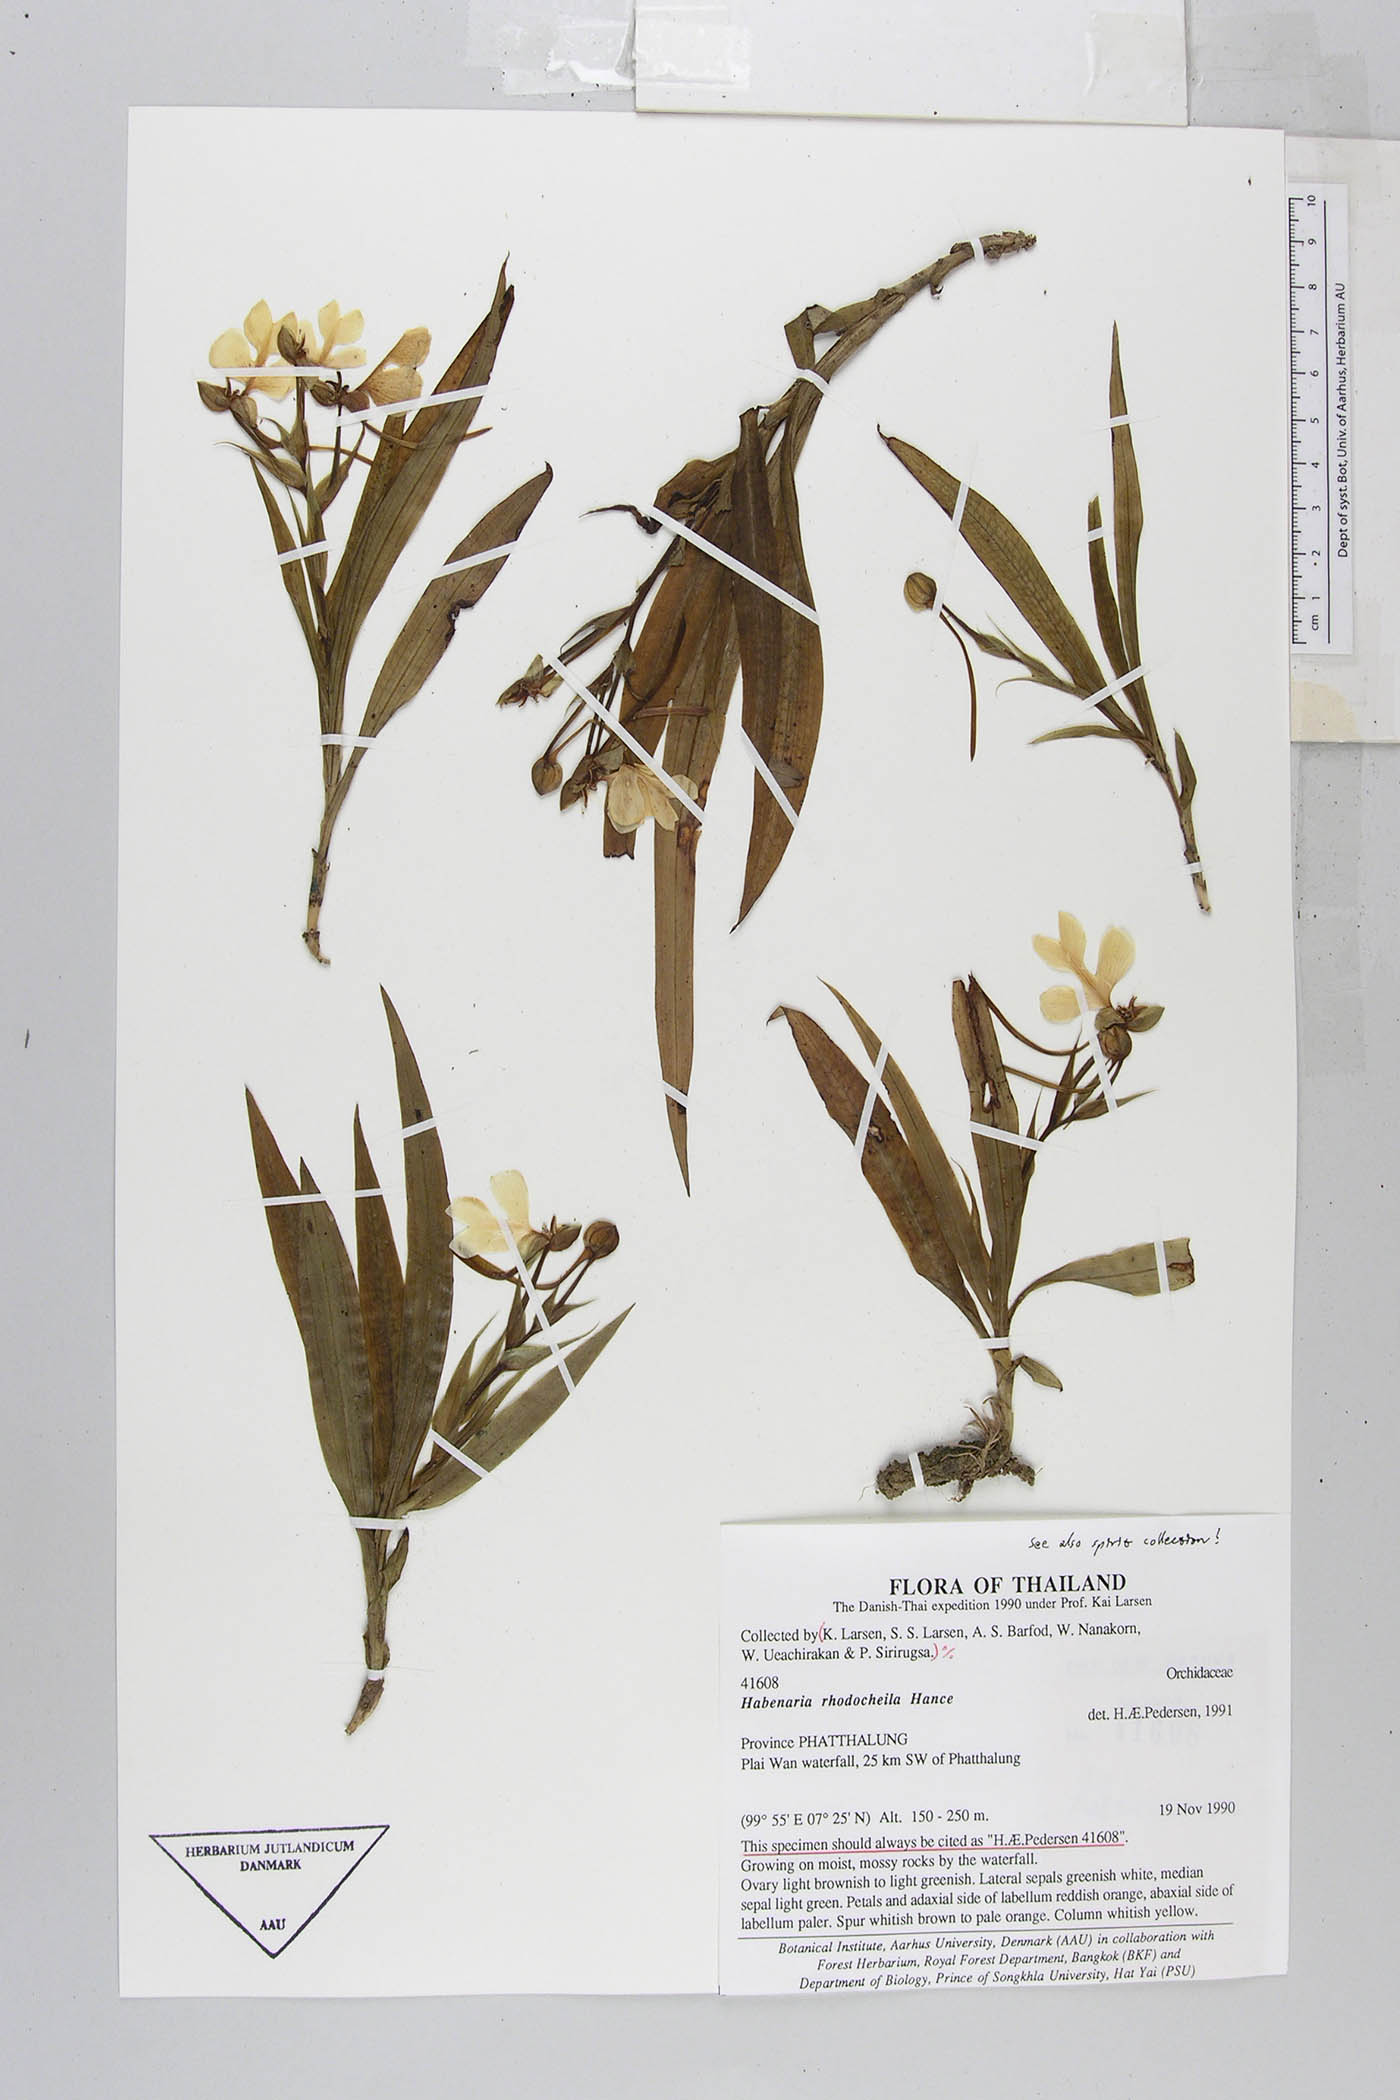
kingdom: Plantae
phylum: Tracheophyta
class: Liliopsida
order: Asparagales
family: Orchidaceae
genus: Habenaria
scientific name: Habenaria rhodocheila
